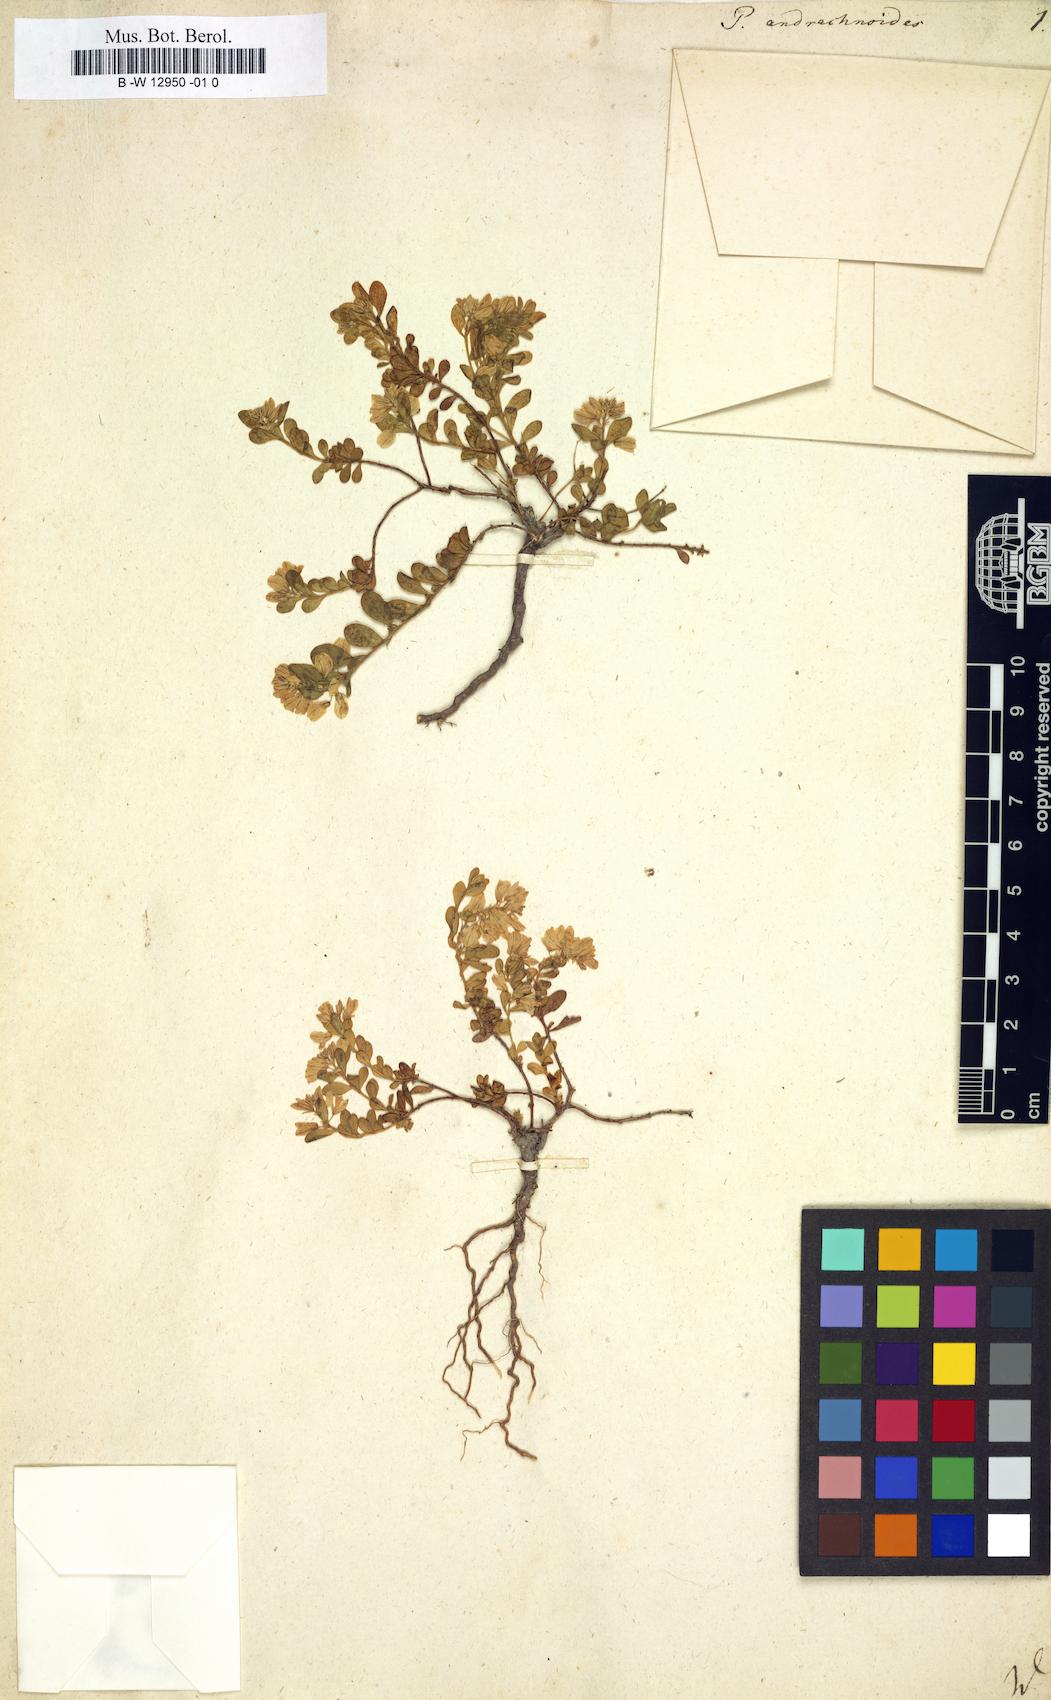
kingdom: Plantae
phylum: Tracheophyta
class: Magnoliopsida
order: Fabales
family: Polygalaceae
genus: Polygala
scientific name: Polygala supina
